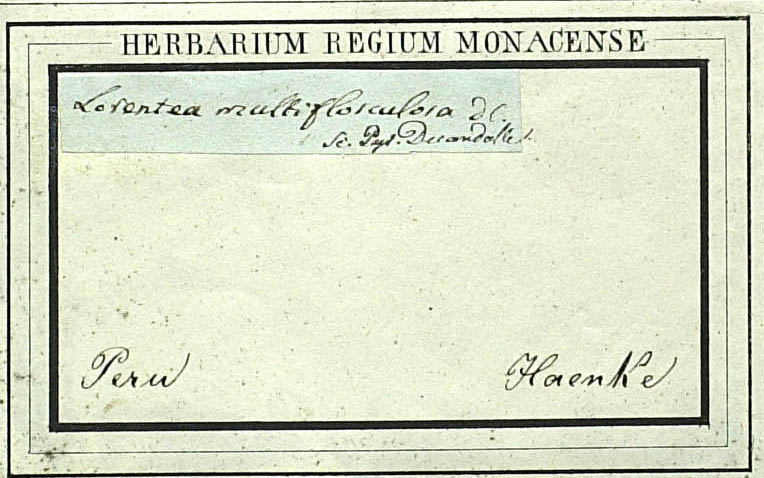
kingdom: Plantae
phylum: Tracheophyta
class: Magnoliopsida
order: Asterales
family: Asteraceae
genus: Pectis
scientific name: Pectis multiflosculosa
